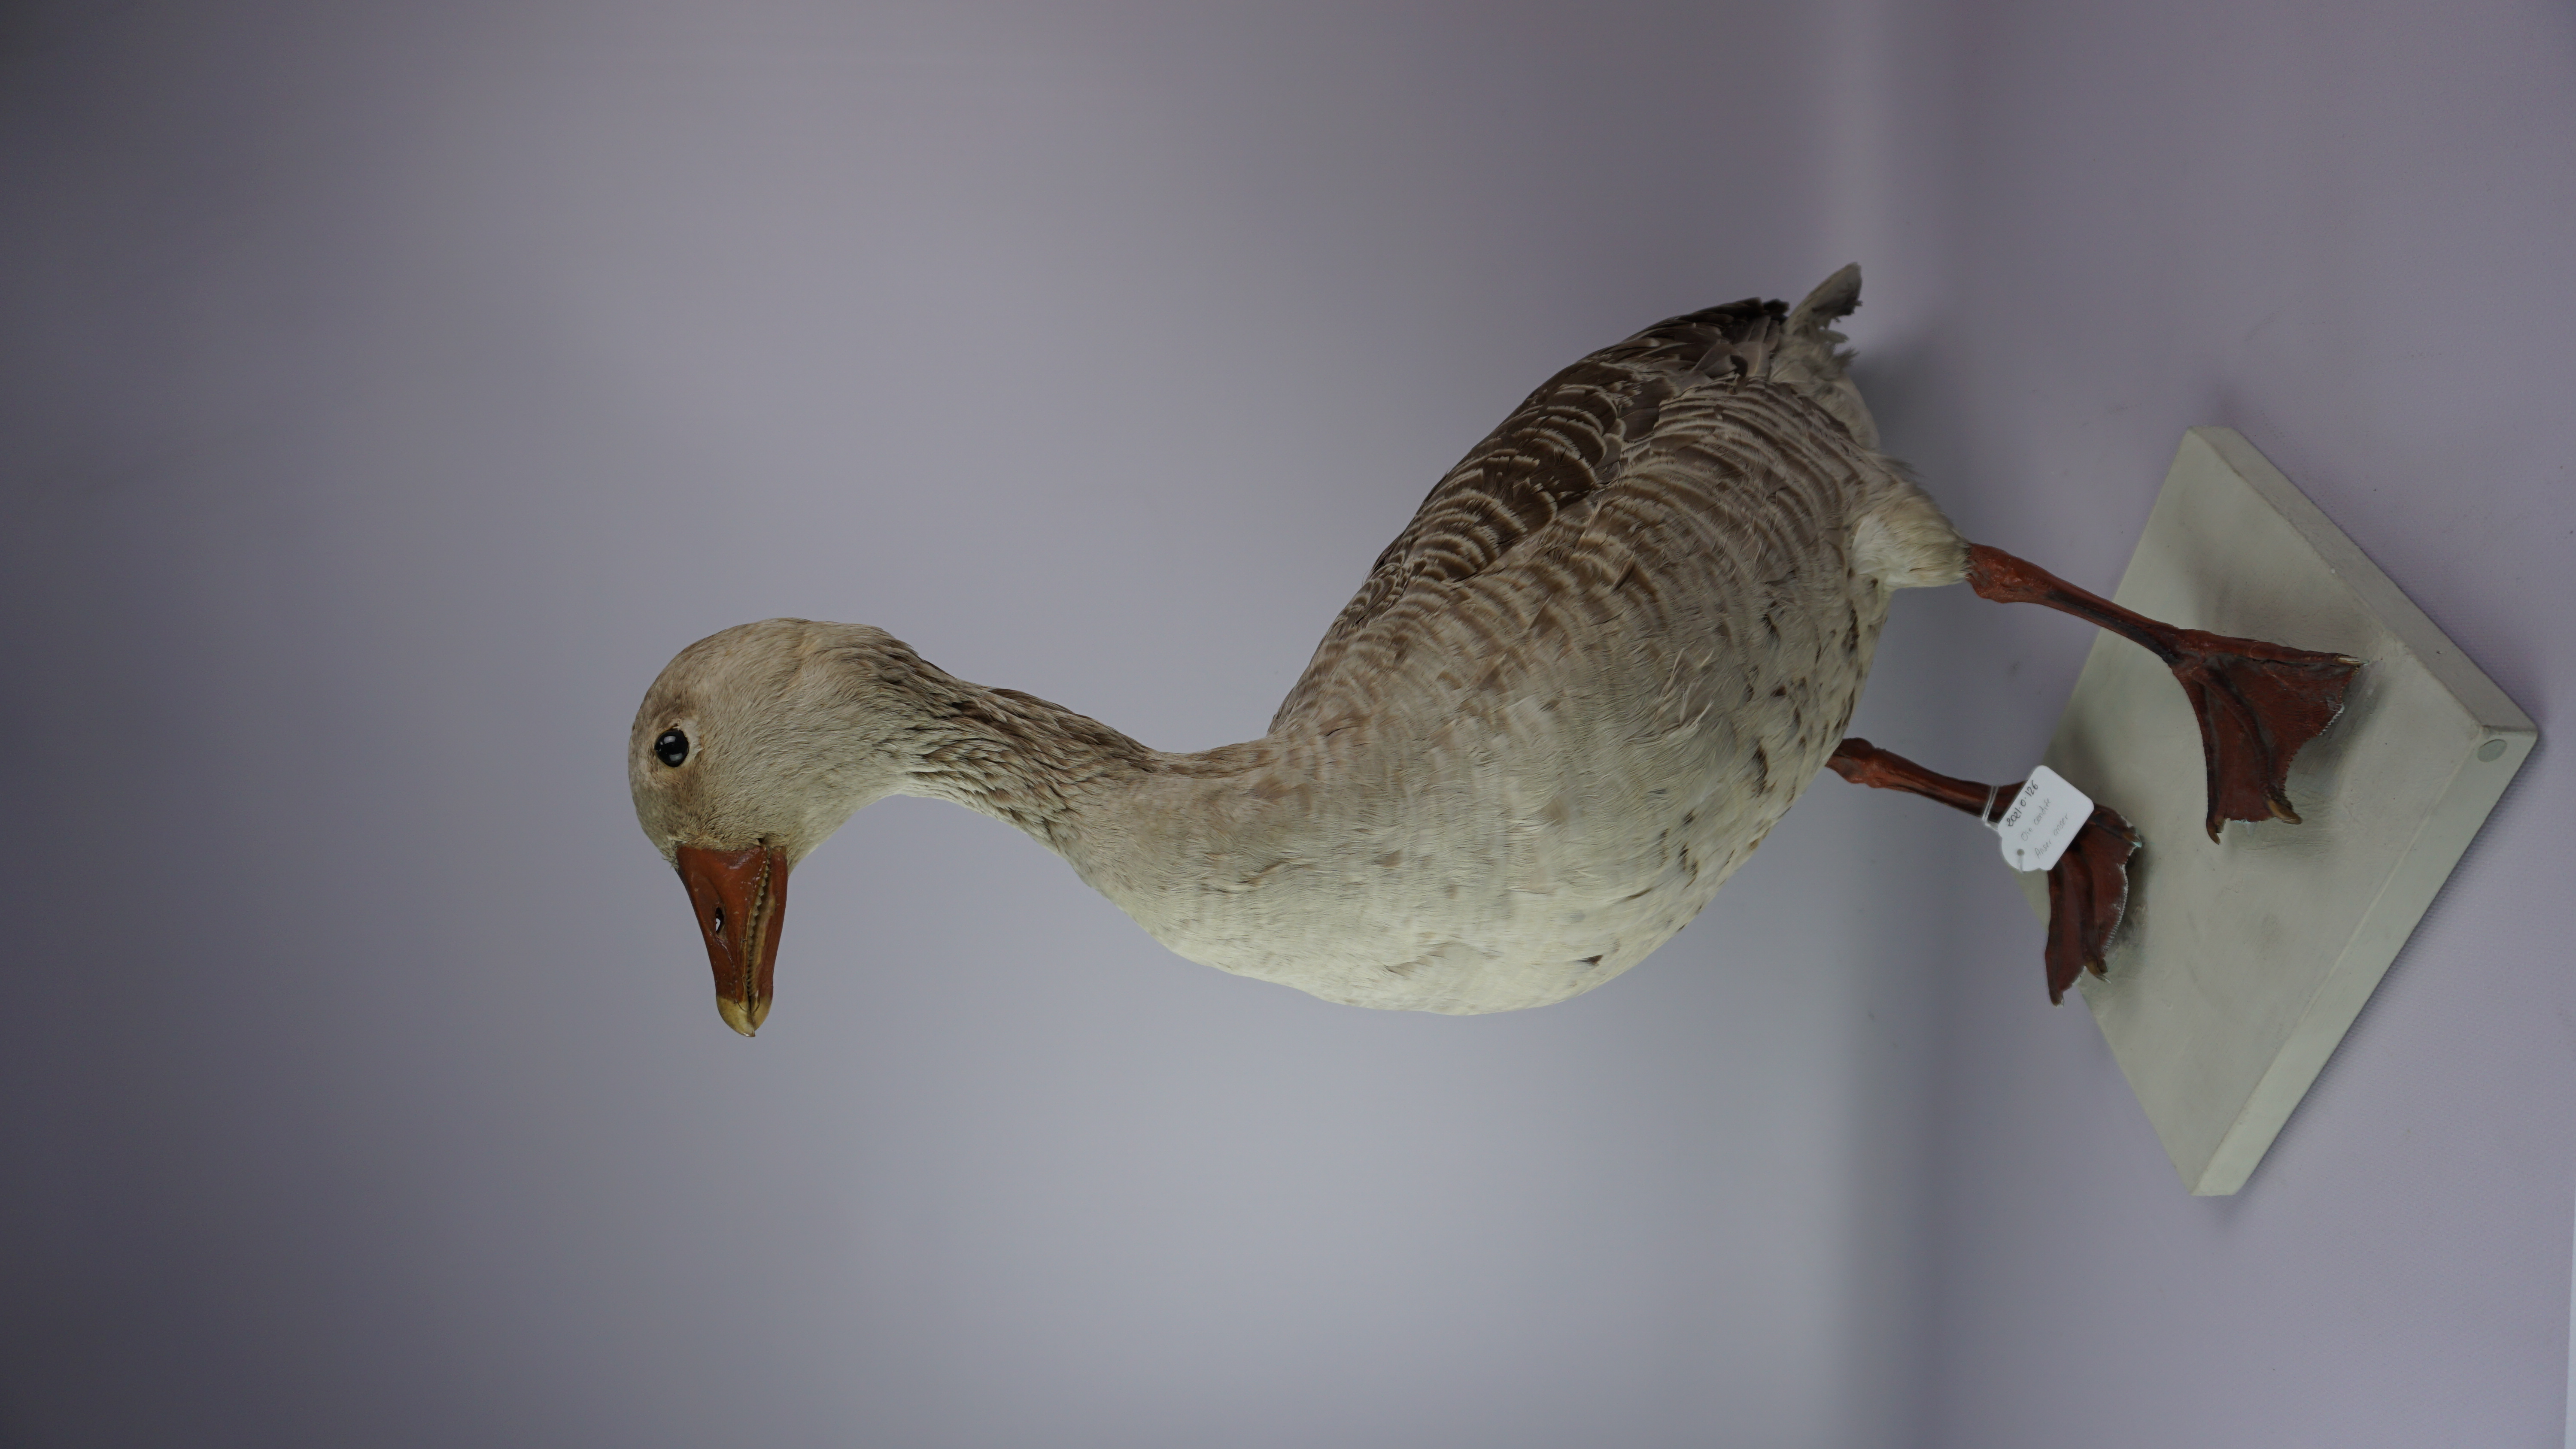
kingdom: Animalia
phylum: Chordata
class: Aves
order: Anseriformes
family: Anatidae
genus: Anser
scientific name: Anser anser
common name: Greylag goose
